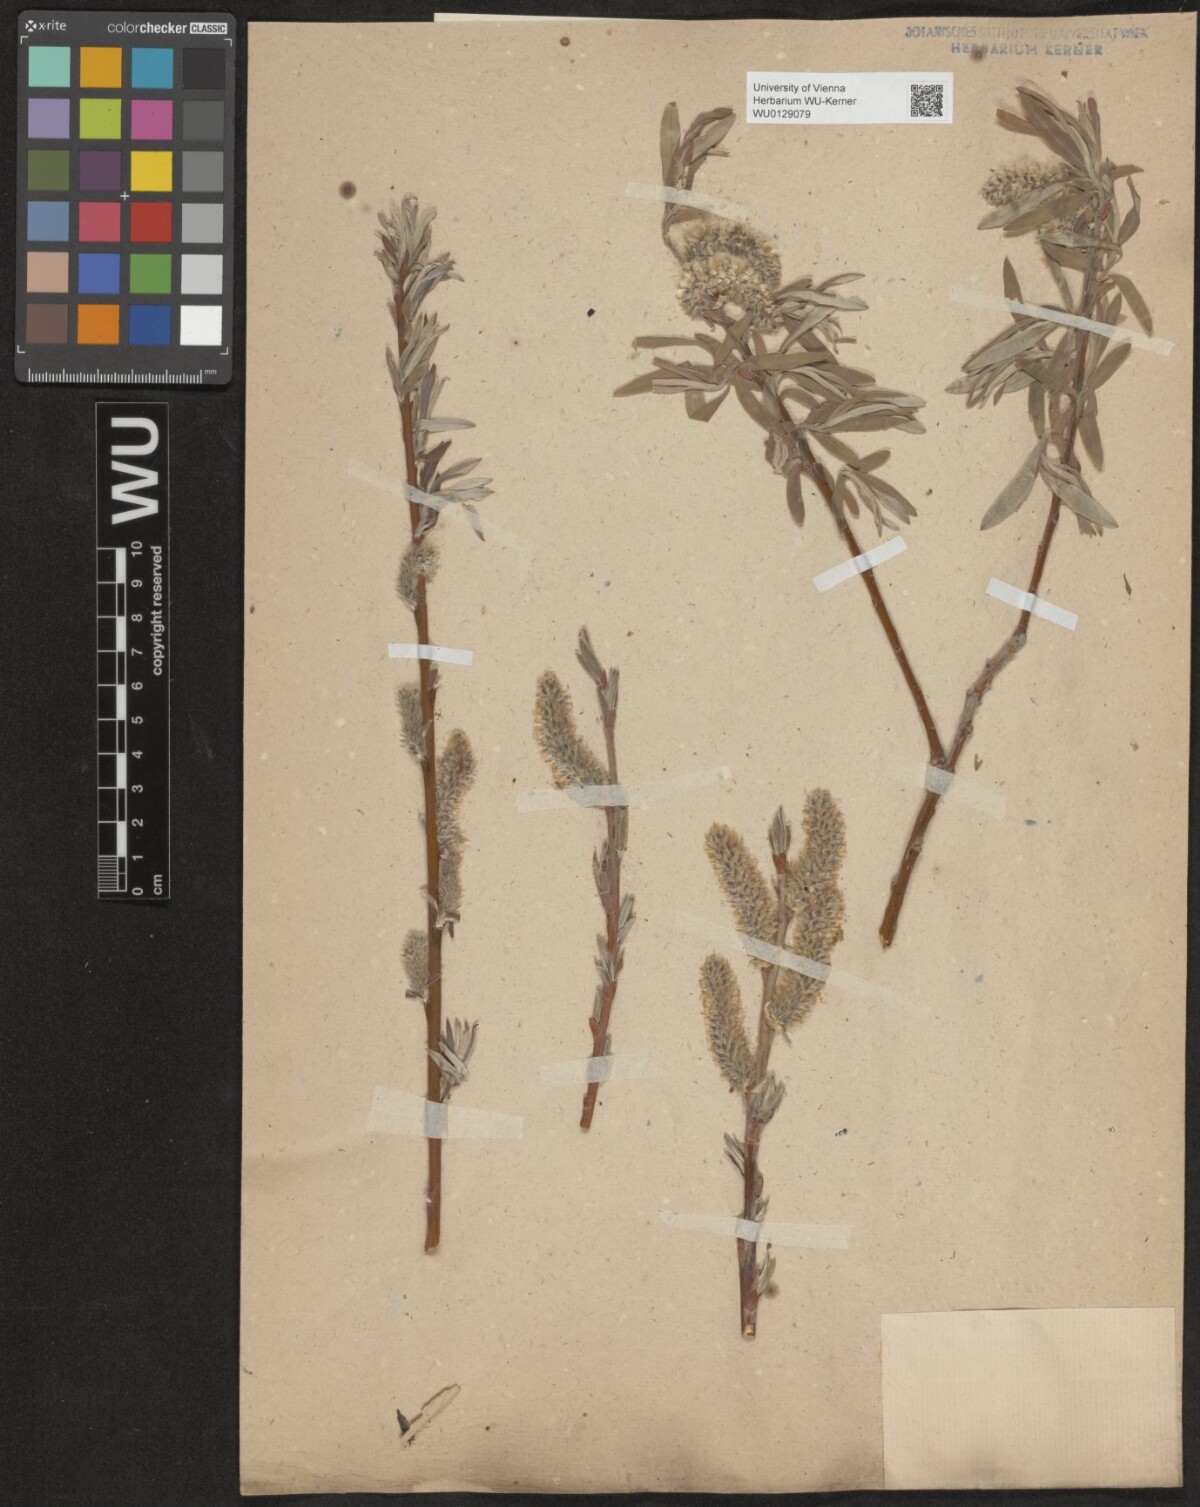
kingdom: Plantae
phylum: Tracheophyta
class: Magnoliopsida
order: Malpighiales
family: Salicaceae
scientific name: Salicaceae
